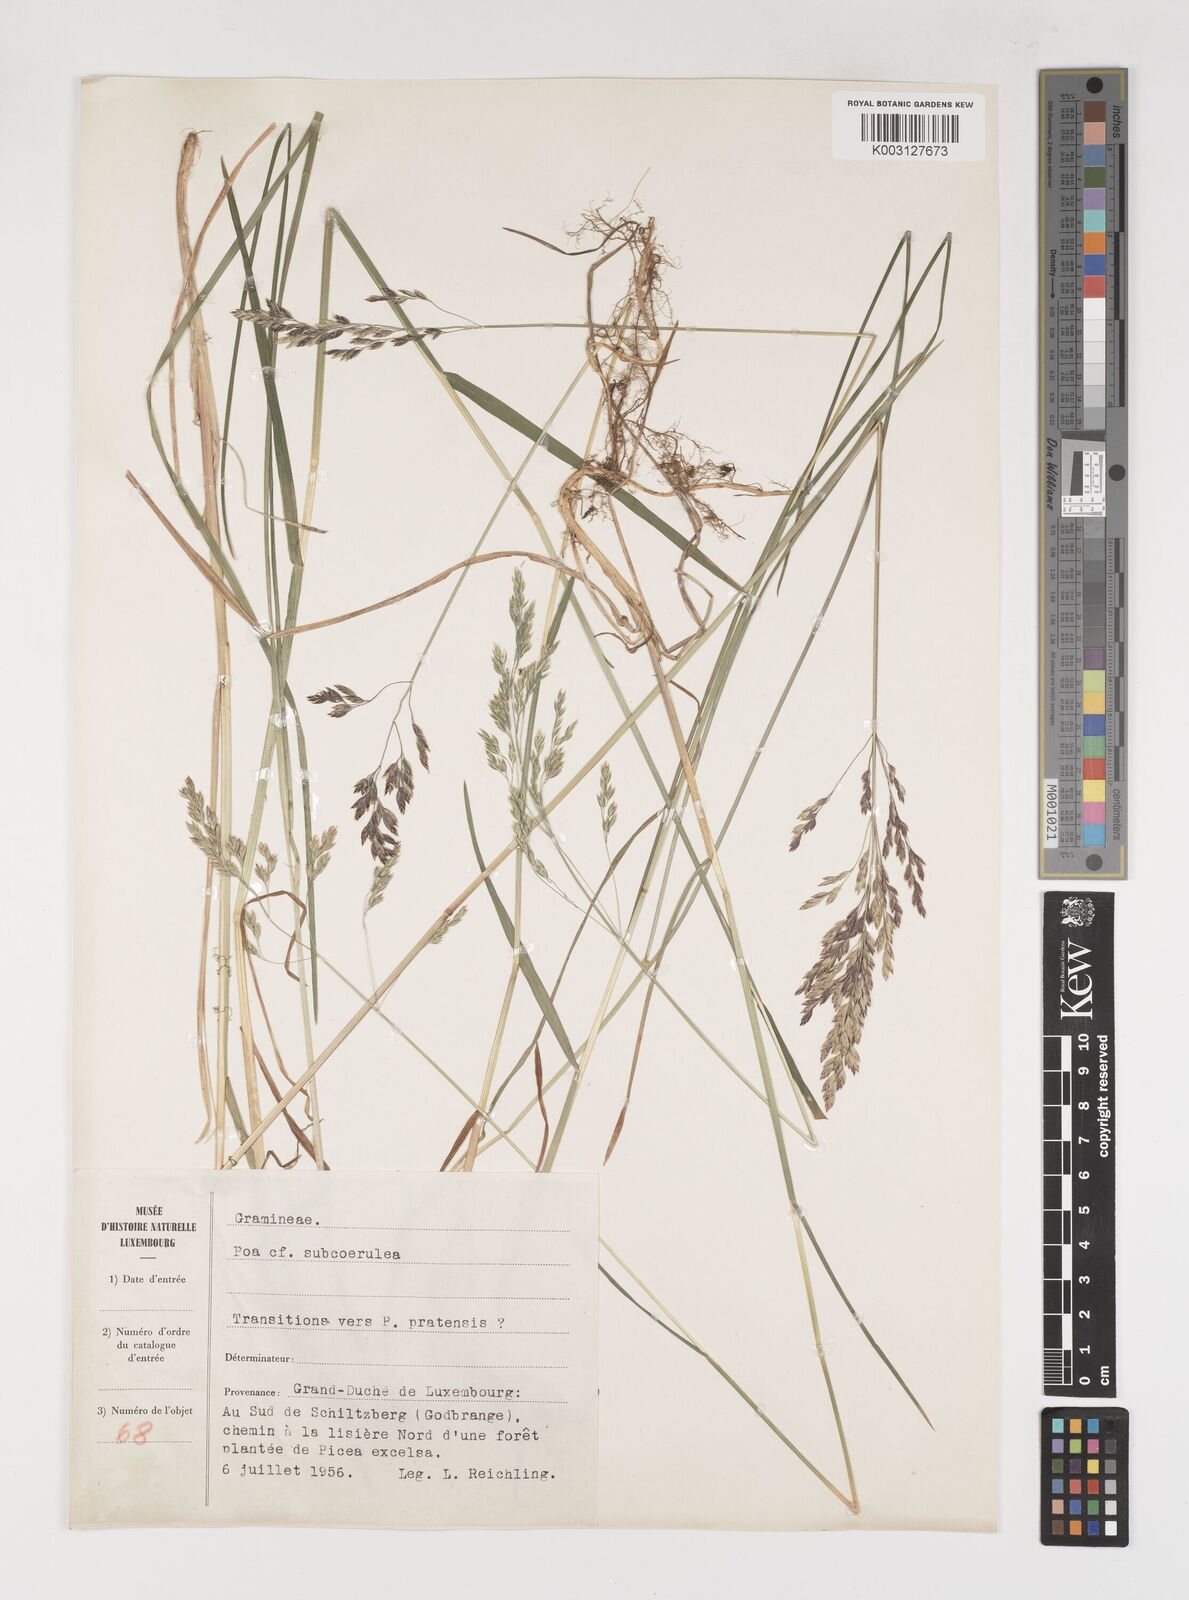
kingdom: Plantae
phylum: Tracheophyta
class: Liliopsida
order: Poales
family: Poaceae
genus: Poa
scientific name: Poa
